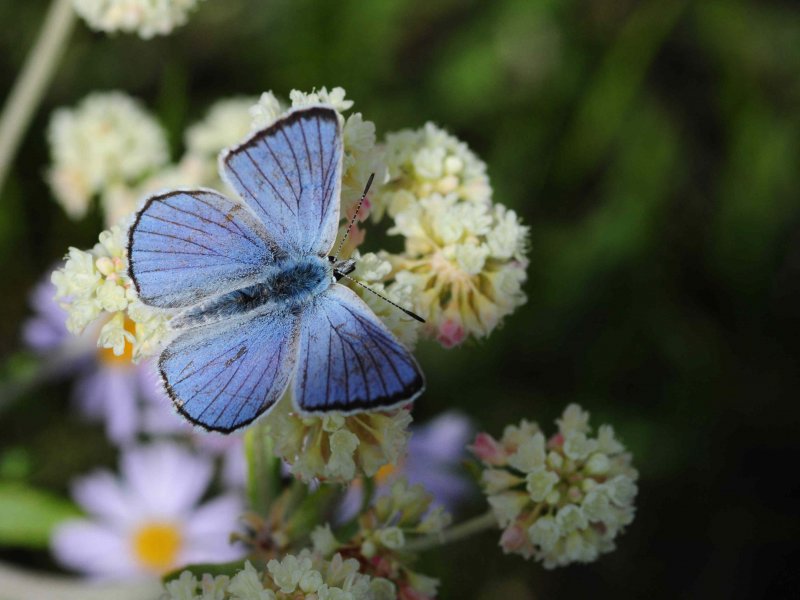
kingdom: Animalia
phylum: Arthropoda
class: Insecta
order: Lepidoptera
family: Lycaenidae
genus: Lycaena
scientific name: Lycaena heteronea
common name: Blue Copper
